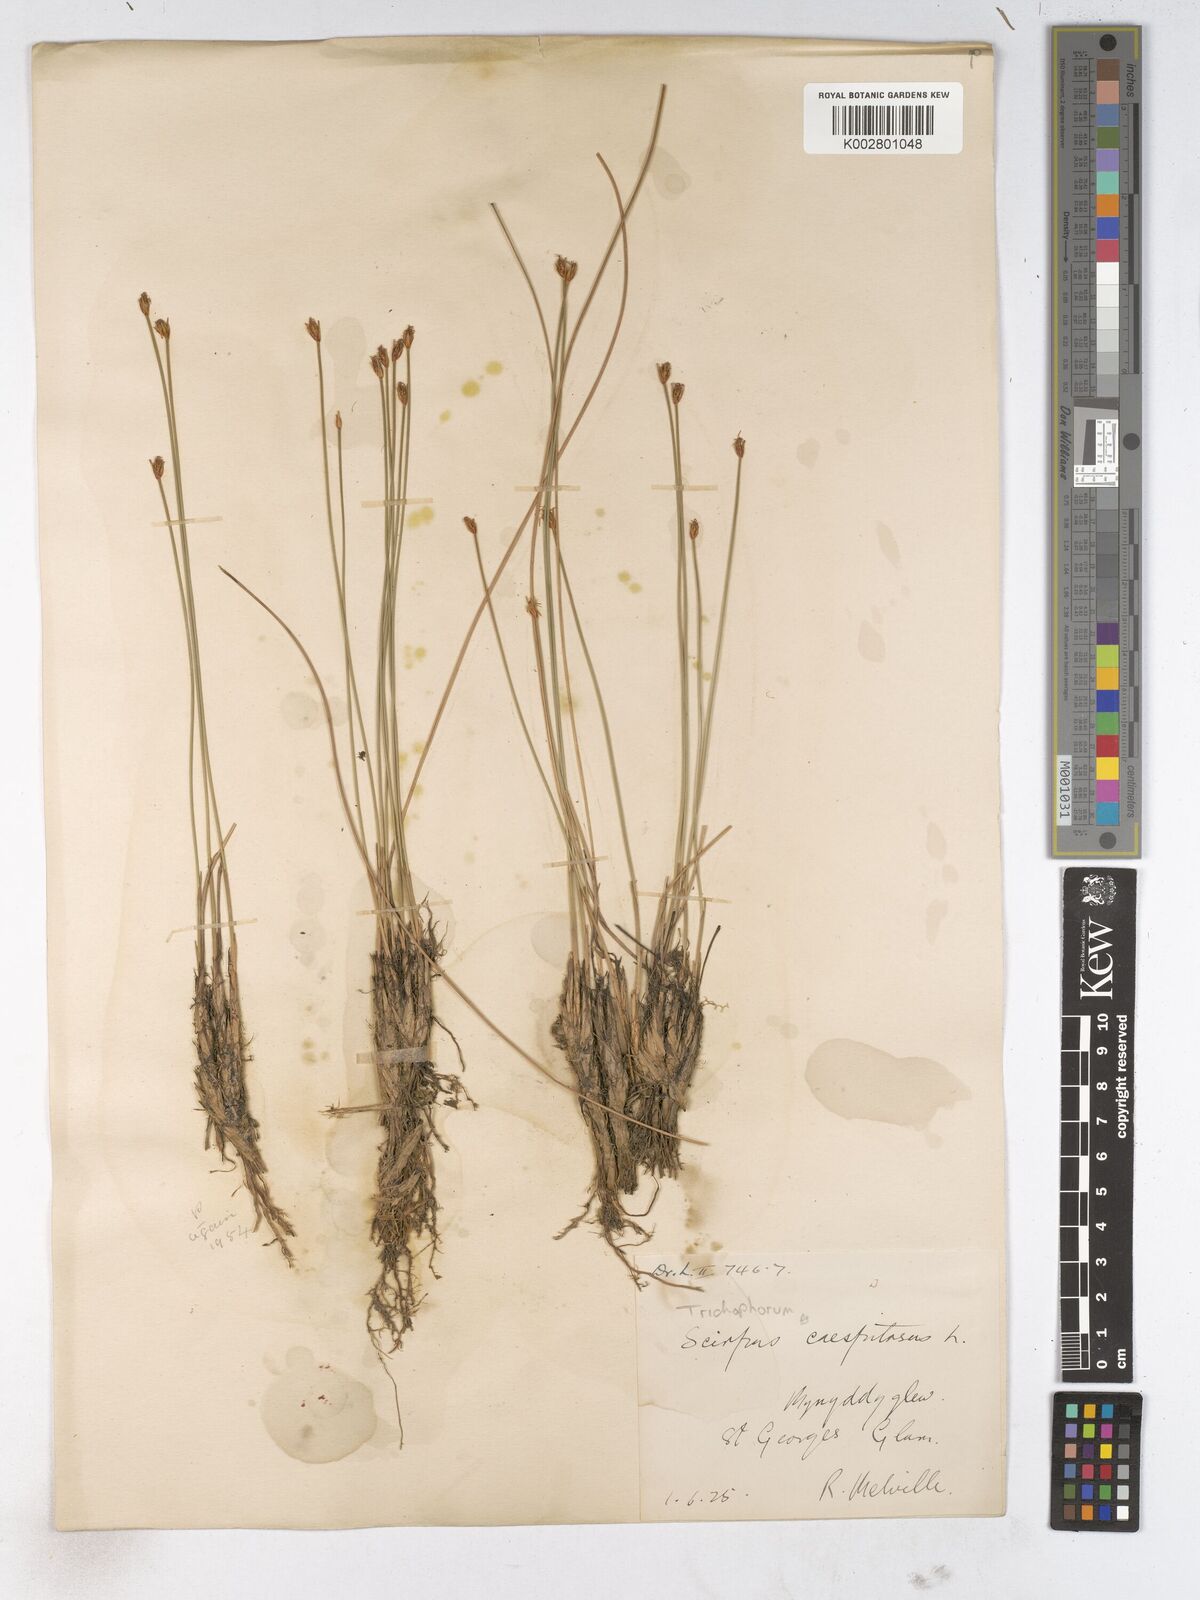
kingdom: Plantae
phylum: Tracheophyta
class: Liliopsida
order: Poales
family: Cyperaceae
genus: Trichophorum
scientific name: Trichophorum cespitosum
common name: Cespitose bulrush
